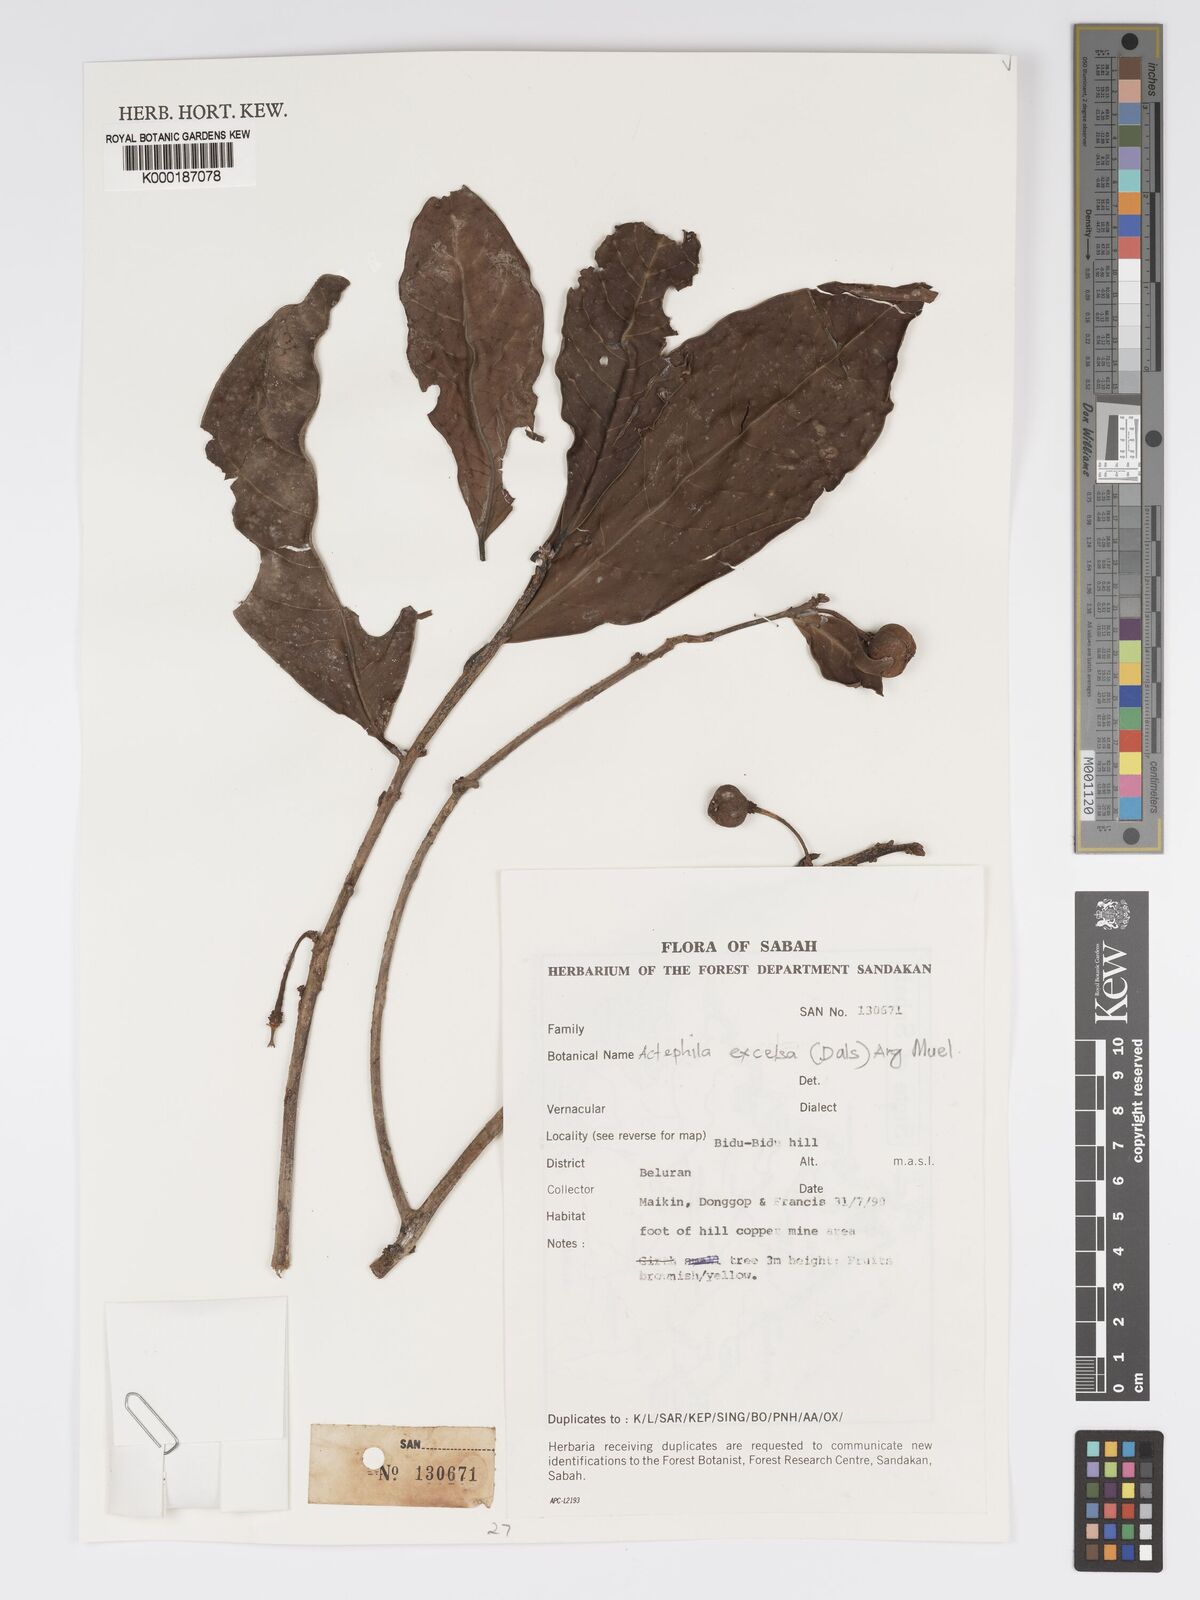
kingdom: Plantae
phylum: Tracheophyta
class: Magnoliopsida
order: Malpighiales
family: Phyllanthaceae
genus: Actephila
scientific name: Actephila
